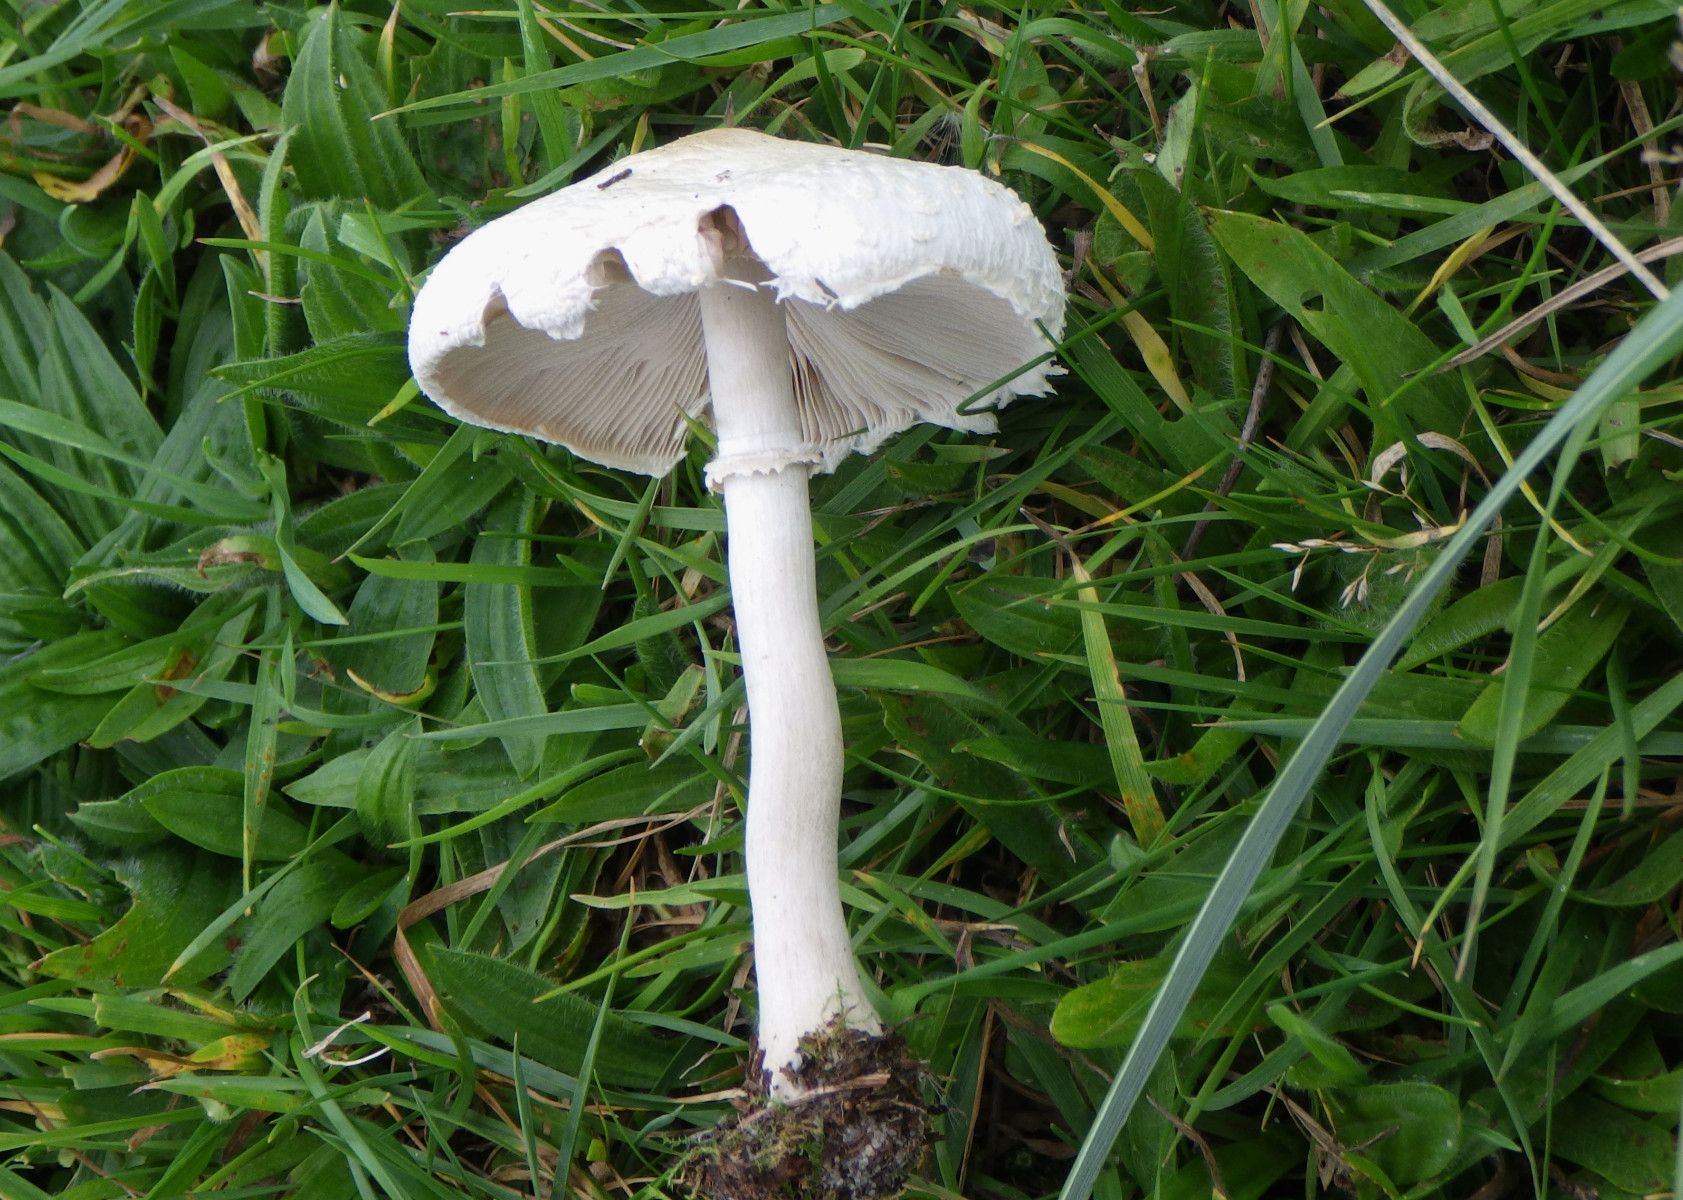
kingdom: Fungi
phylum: Basidiomycota
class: Agaricomycetes
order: Agaricales
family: Agaricaceae
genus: Macrolepiota
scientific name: Macrolepiota excoriata
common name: mark-kæmpeparasolhat
